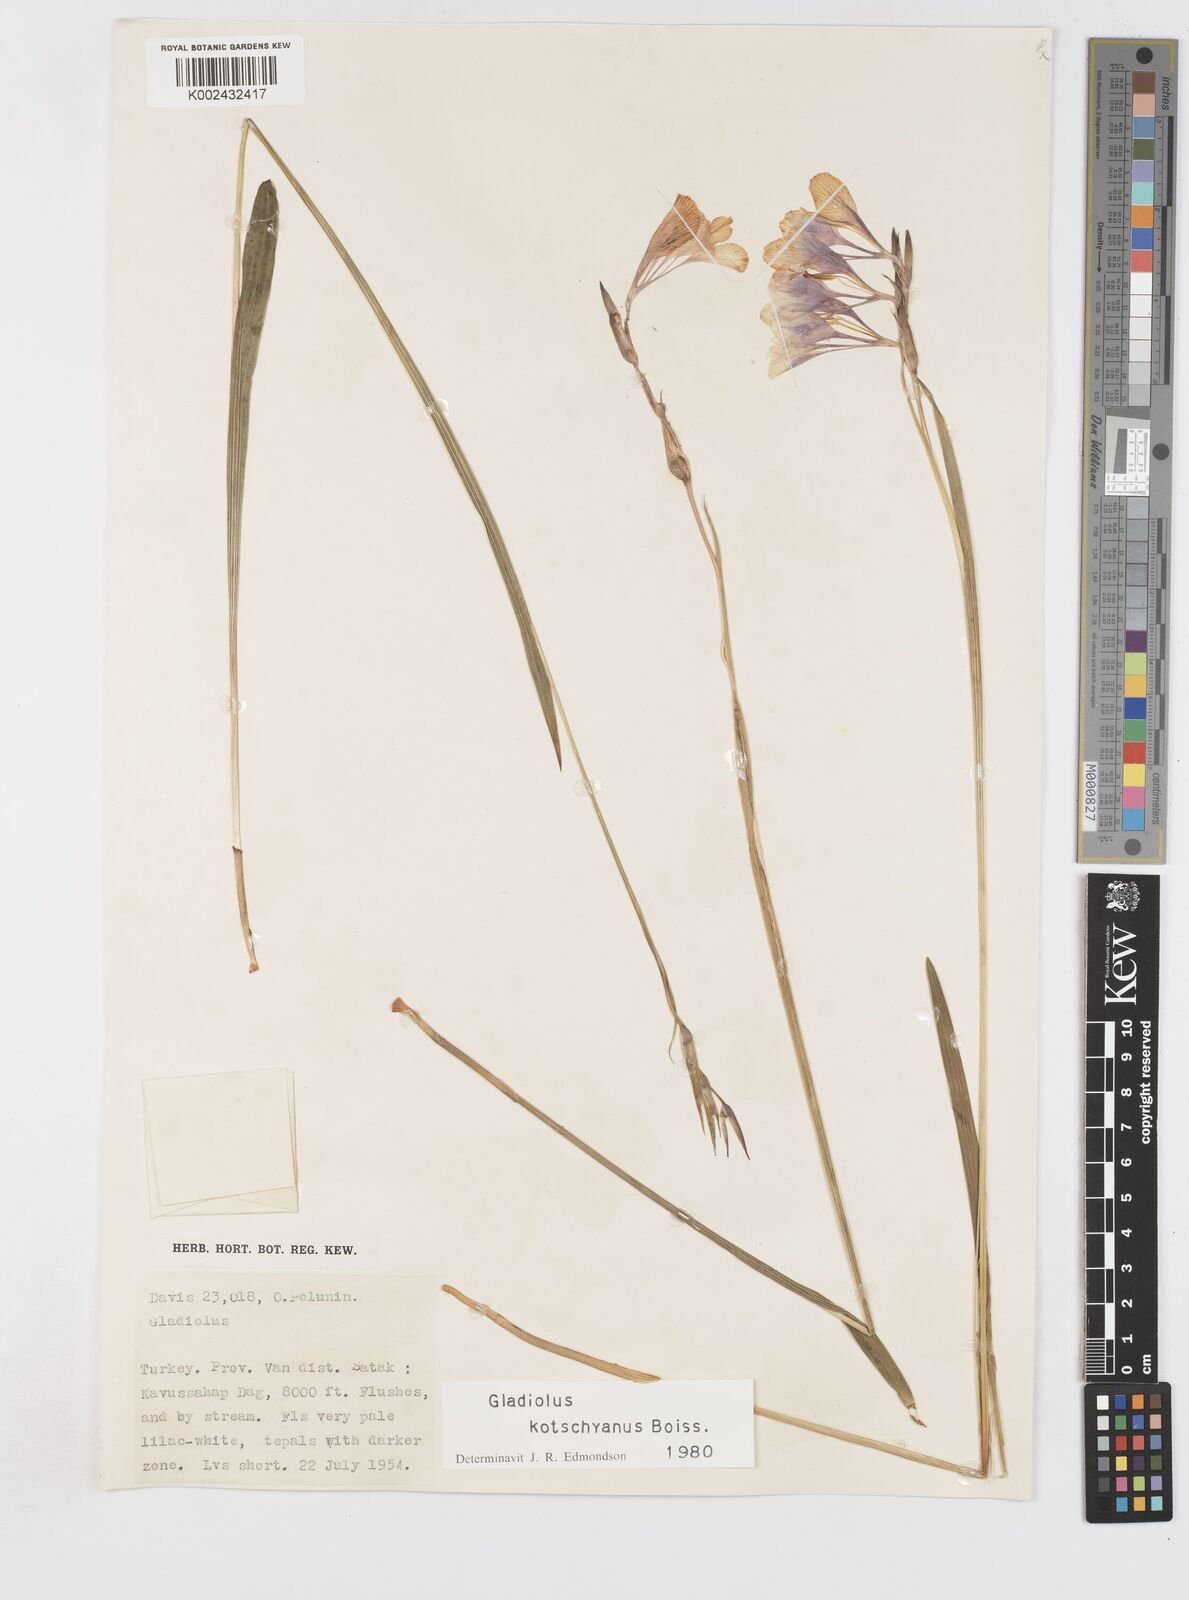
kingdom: Plantae
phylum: Tracheophyta
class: Liliopsida
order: Asparagales
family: Iridaceae
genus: Gladiolus
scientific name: Gladiolus kotschyanus
